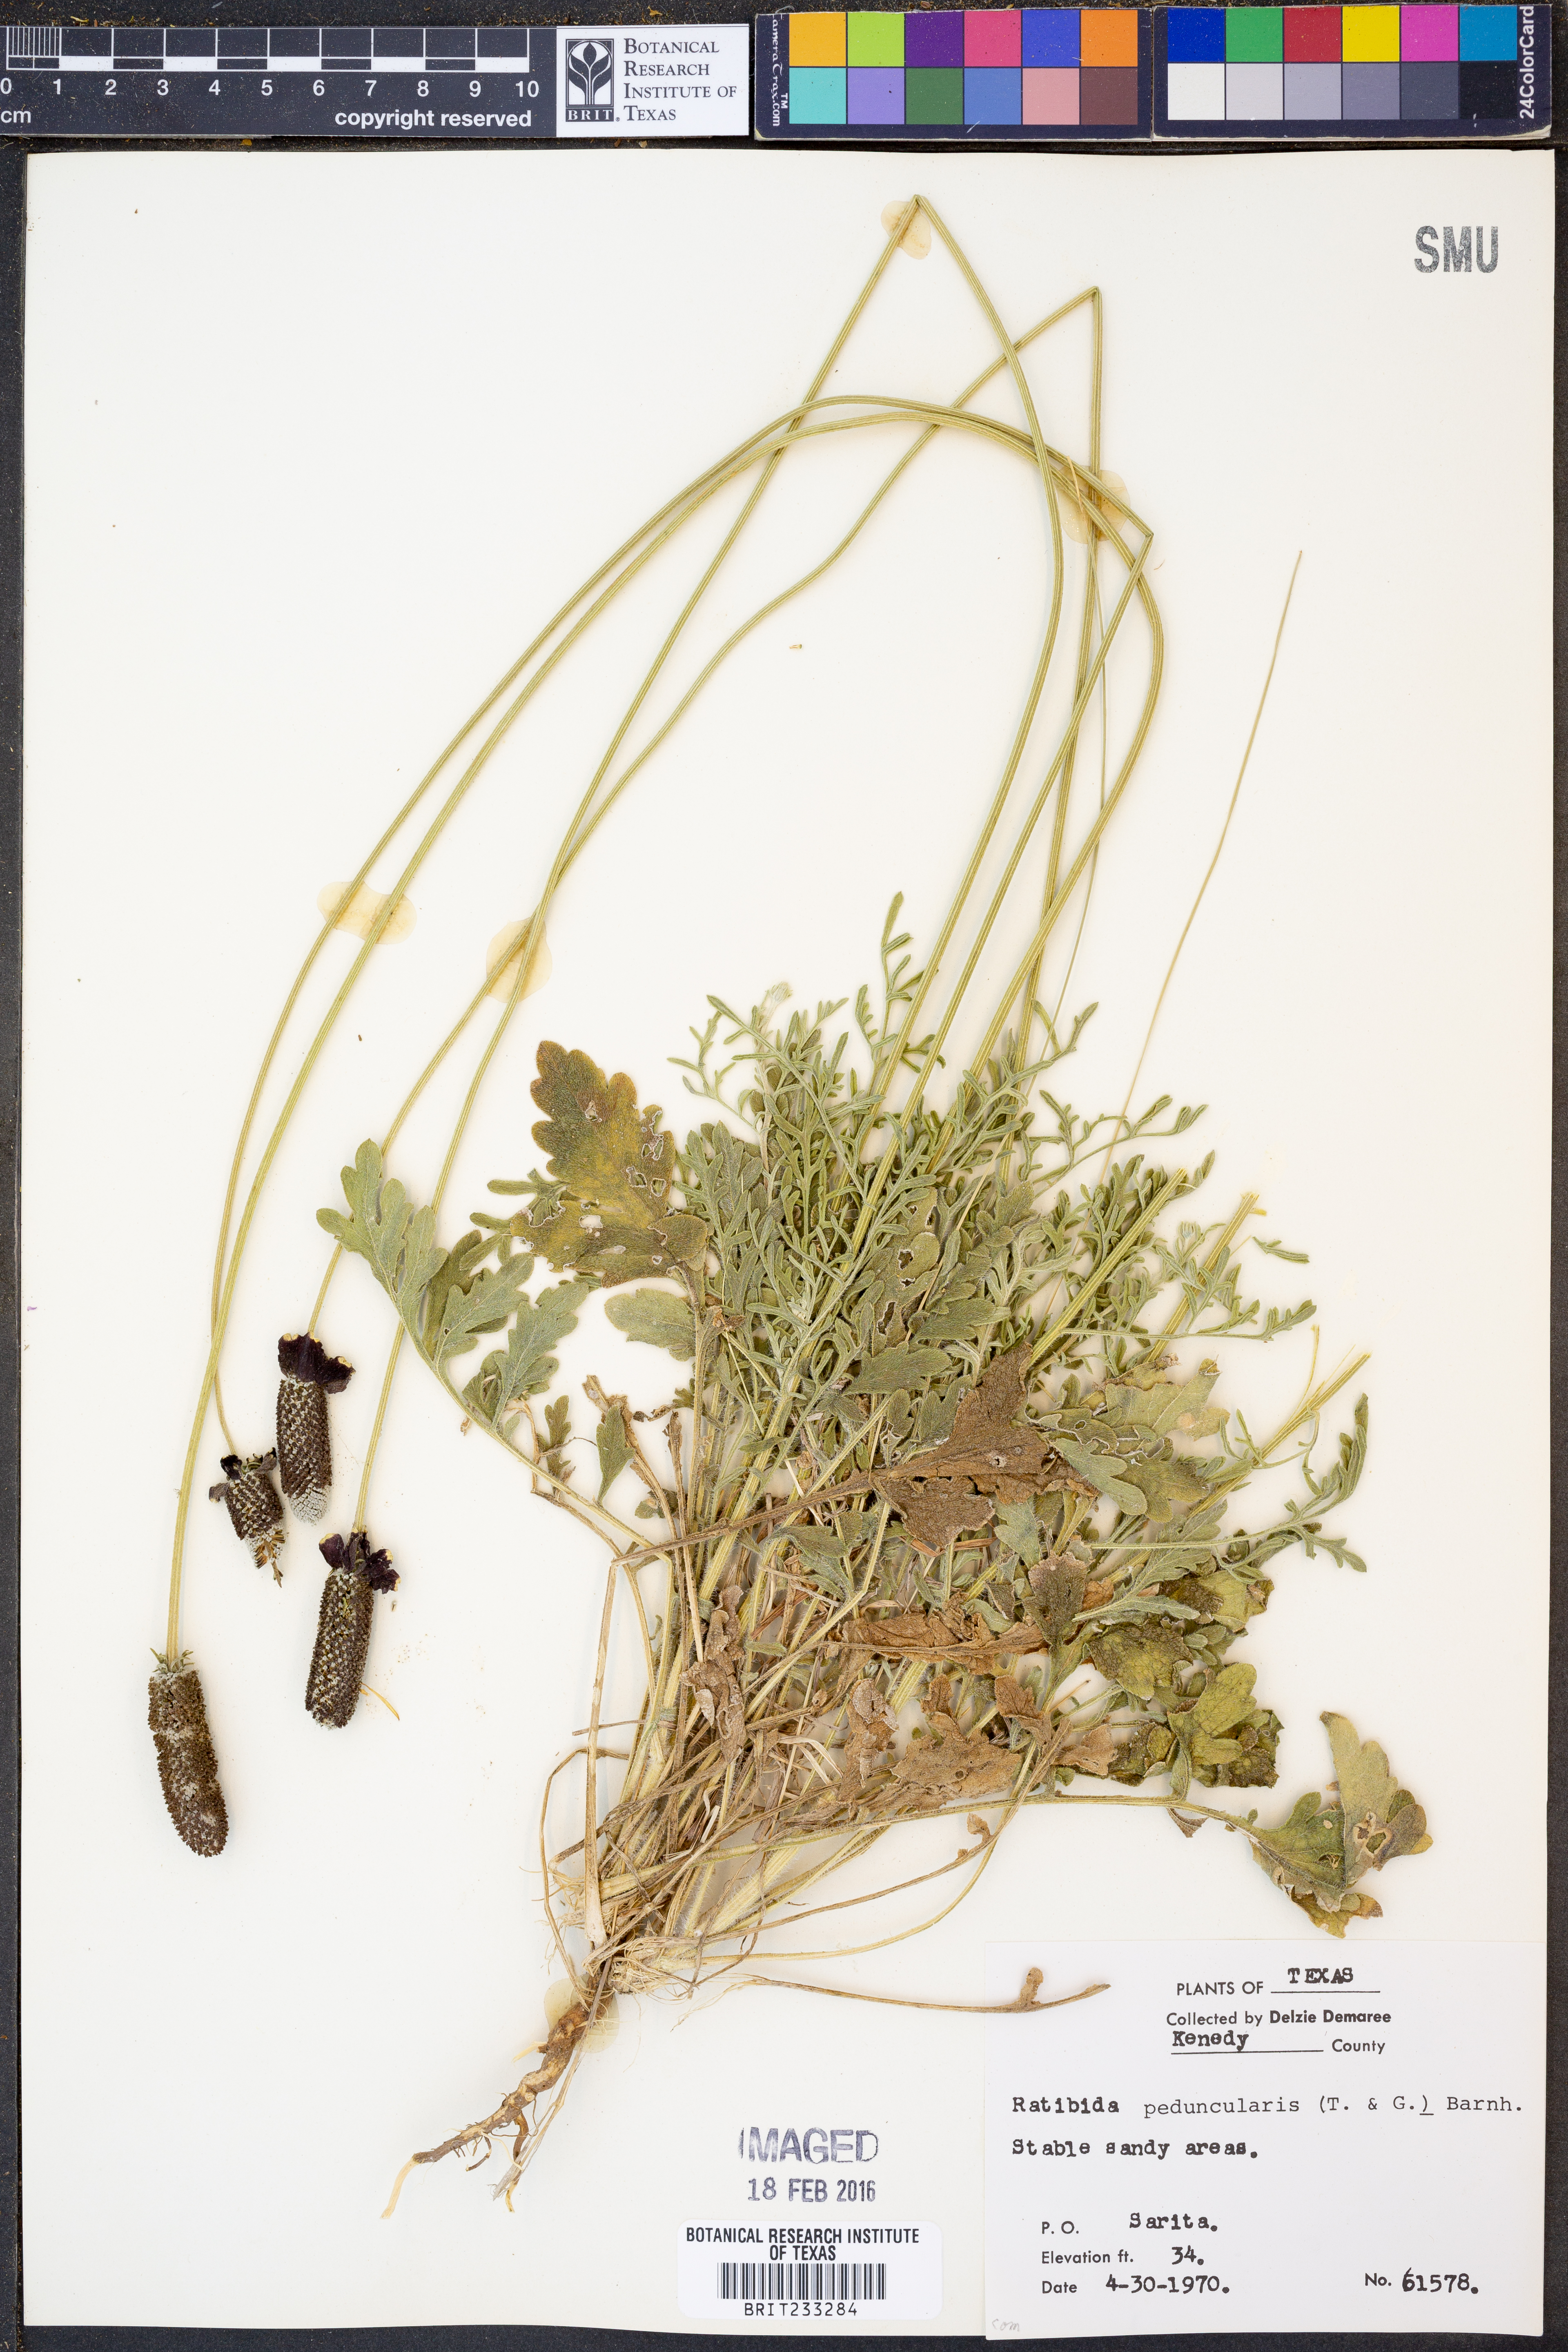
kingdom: Plantae
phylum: Tracheophyta
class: Magnoliopsida
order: Asterales
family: Asteraceae
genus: Ratibida
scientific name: Ratibida peduncularis
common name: Naked prairie-coneflower
